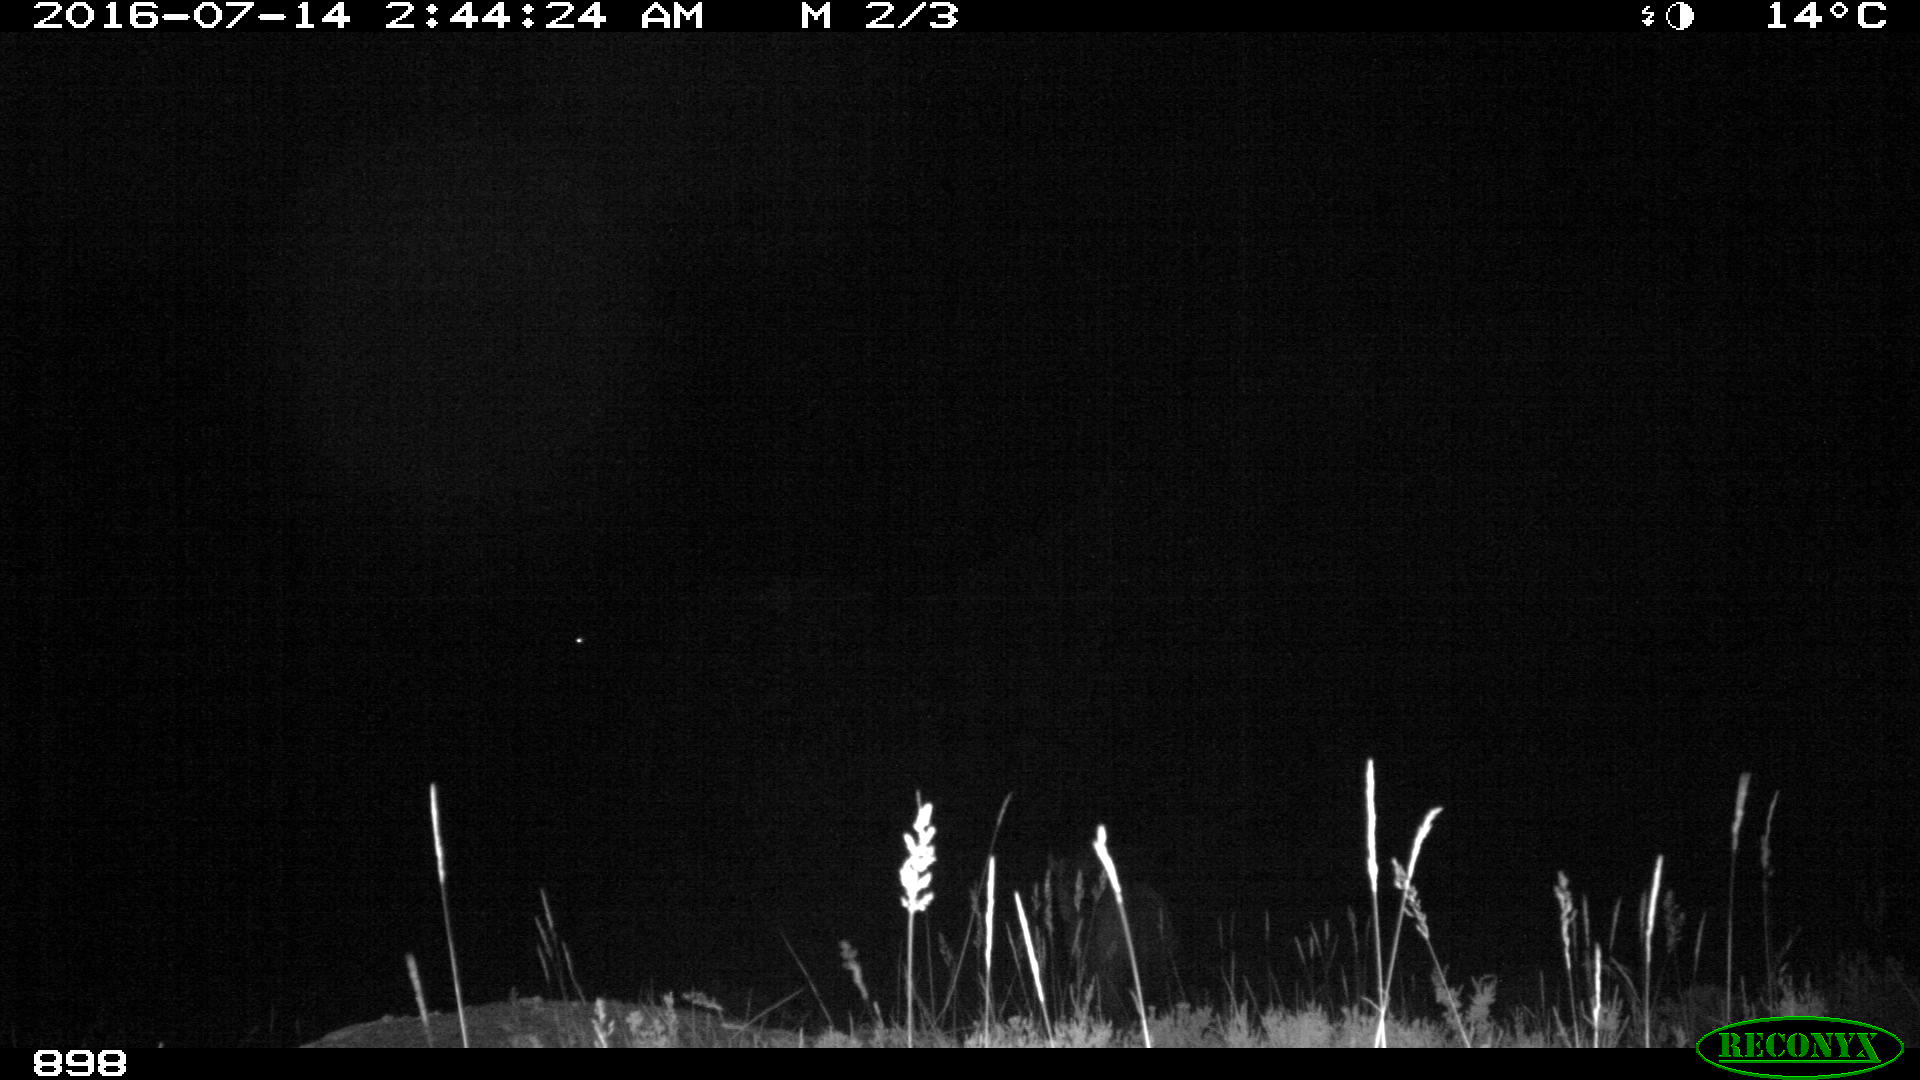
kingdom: Animalia
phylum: Chordata
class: Mammalia
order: Perissodactyla
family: Equidae
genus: Equus
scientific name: Equus caballus
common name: Horse
